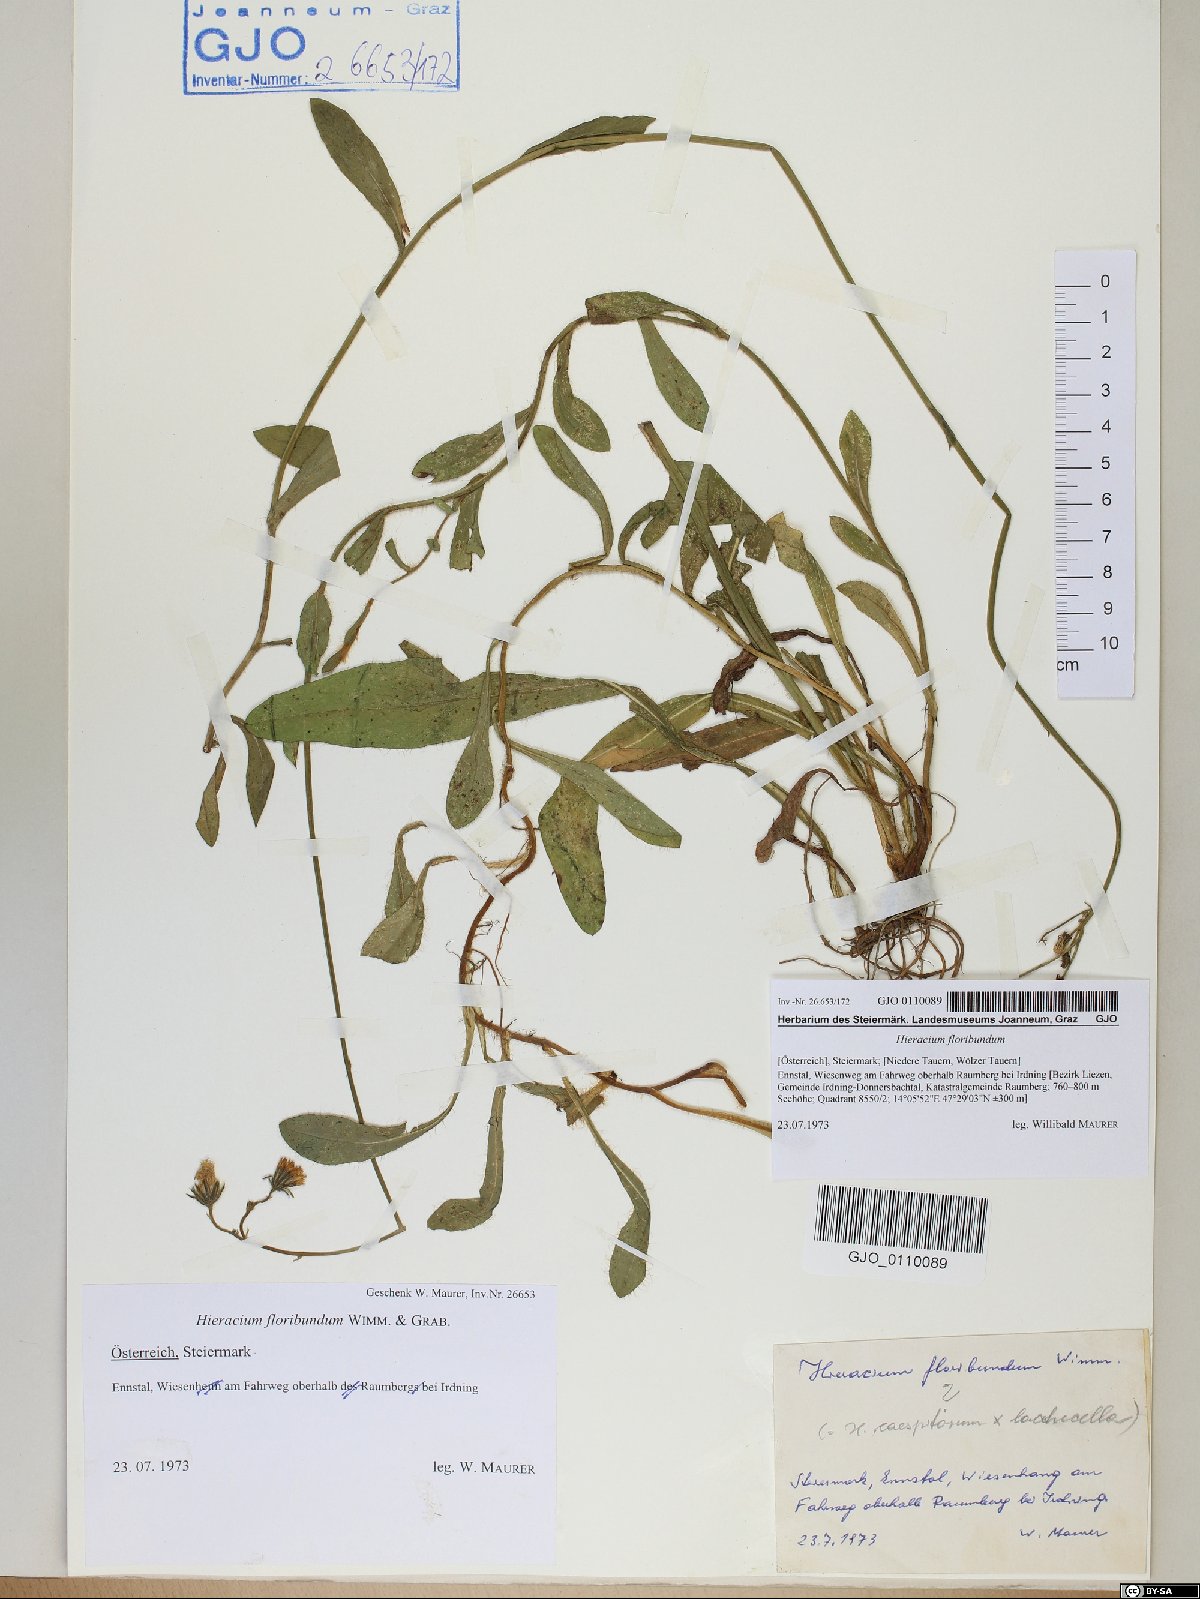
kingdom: Plantae
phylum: Tracheophyta
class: Magnoliopsida
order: Asterales
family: Asteraceae
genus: Pilosella
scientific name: Pilosella floribunda
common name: Glaucous hawkweed
